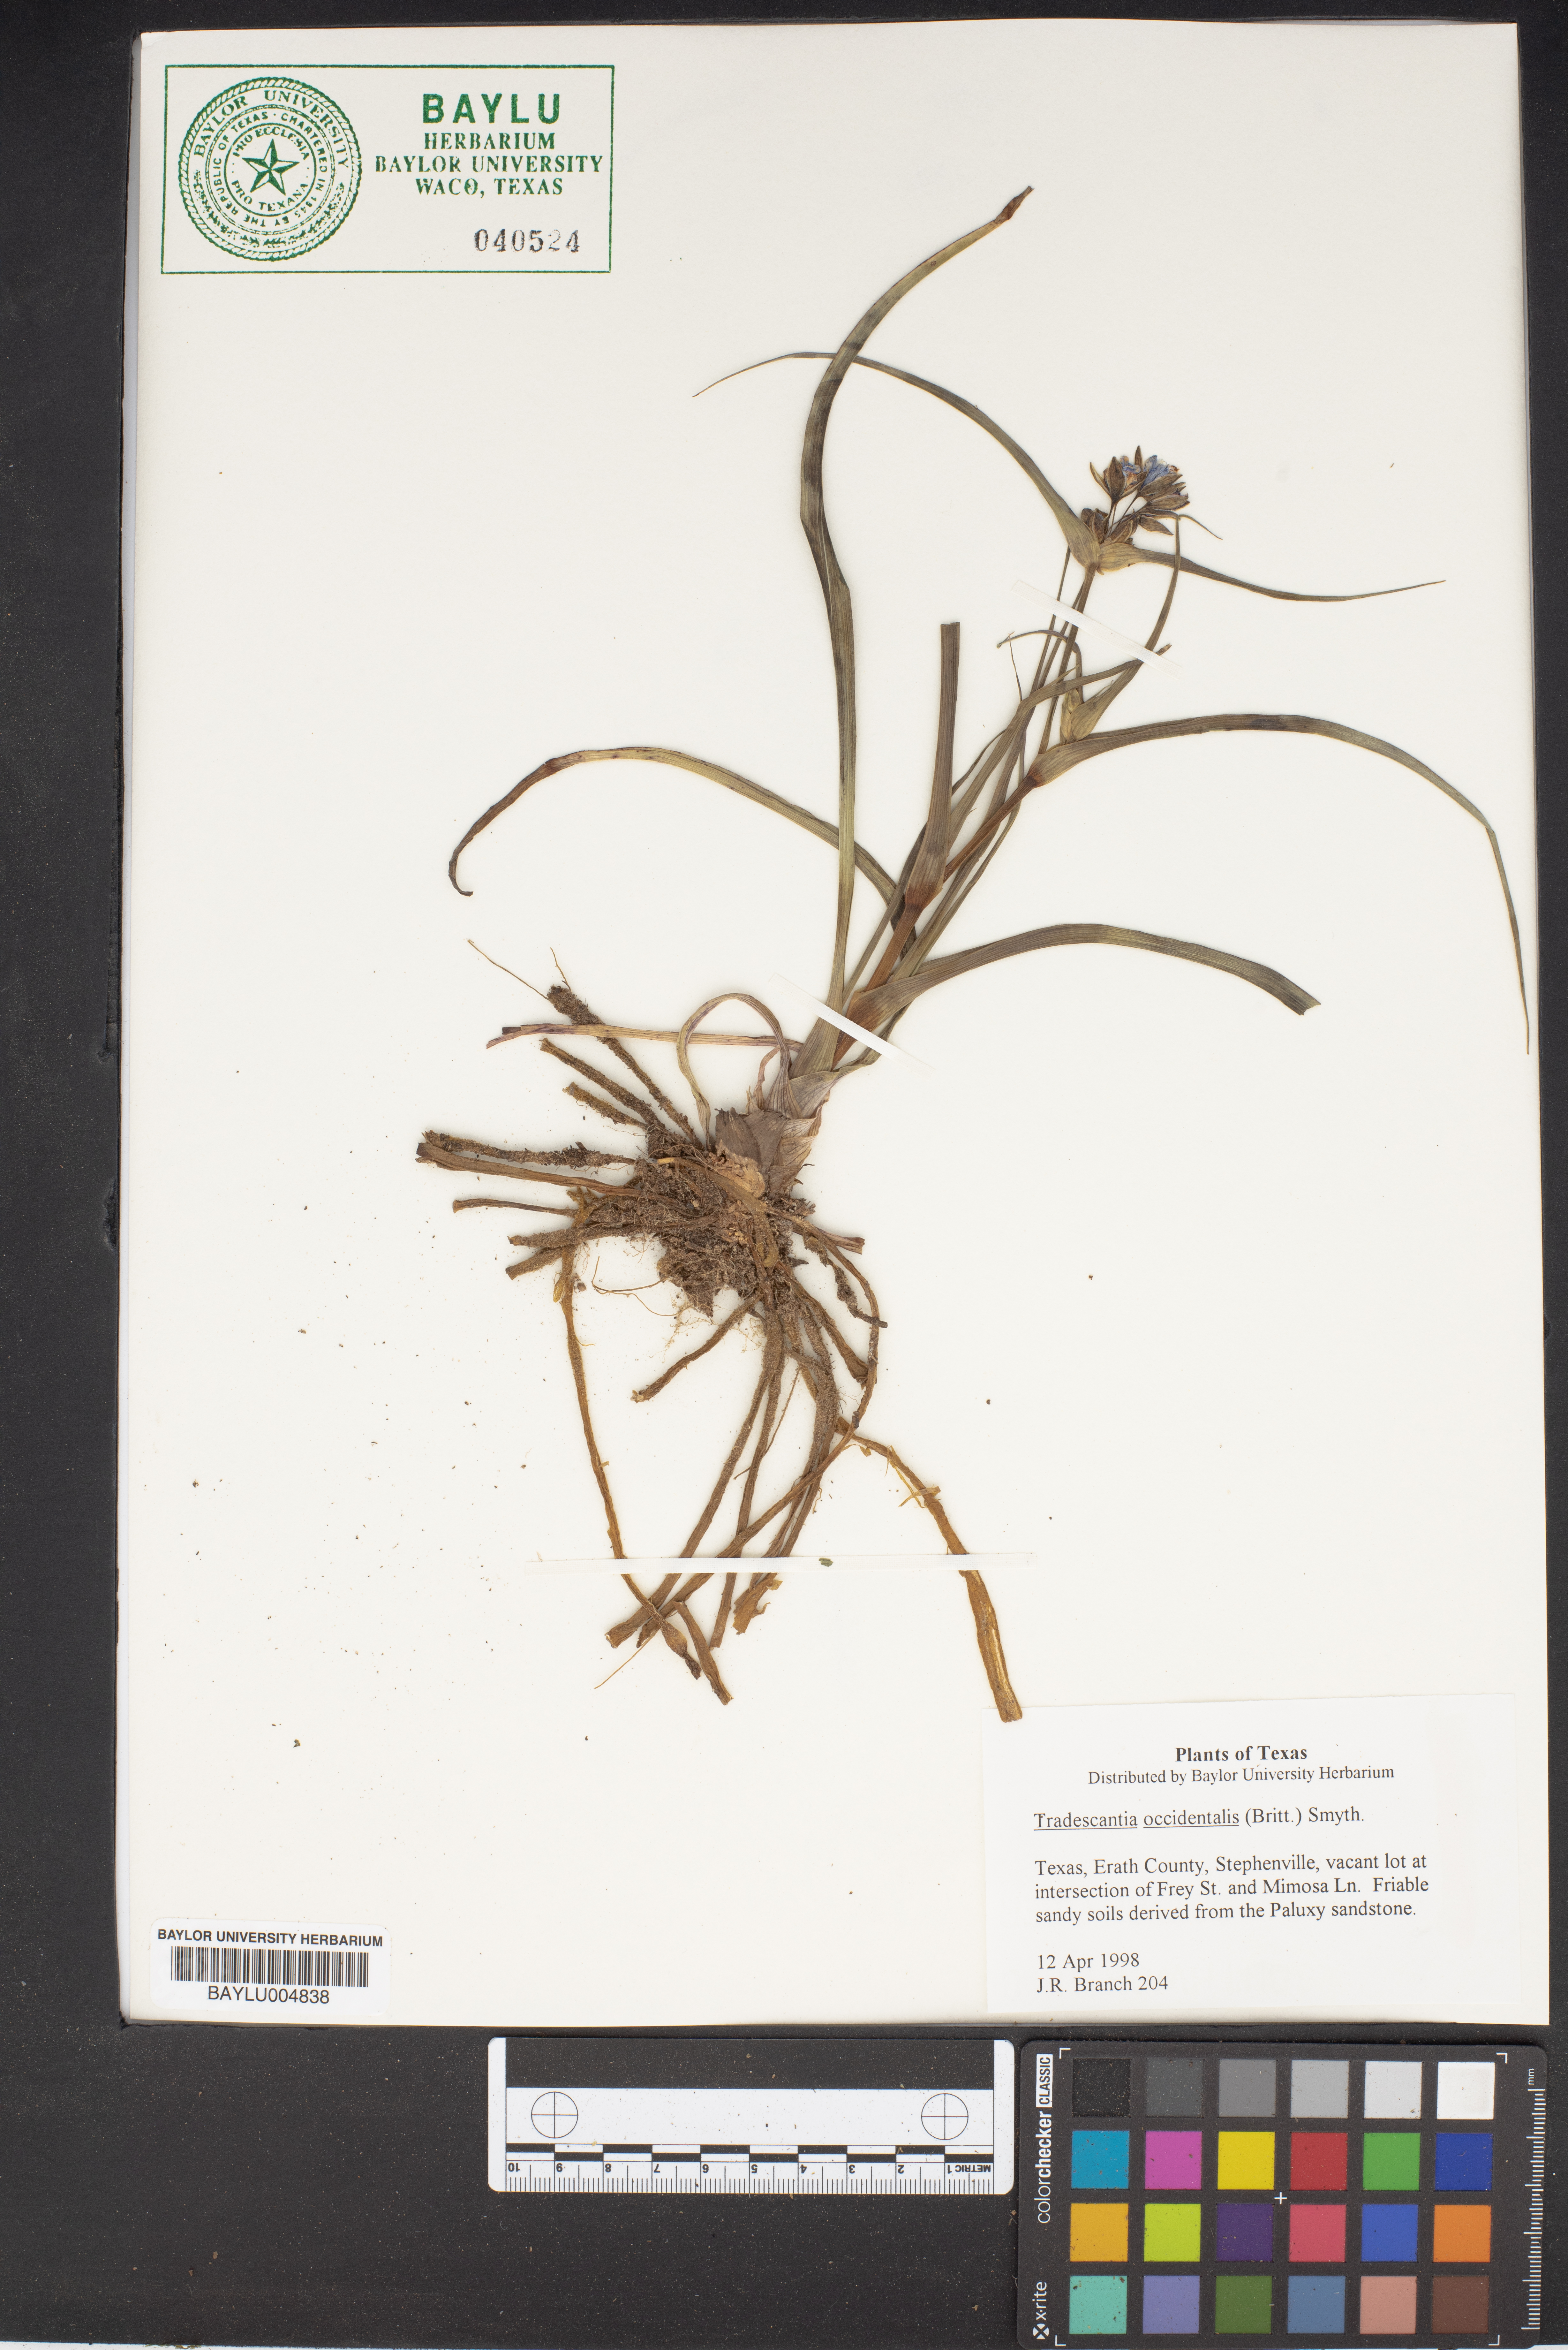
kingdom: Plantae
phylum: Tracheophyta
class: Liliopsida
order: Commelinales
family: Commelinaceae
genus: Tradescantia
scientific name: Tradescantia occidentalis
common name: Prairie spiderwort
